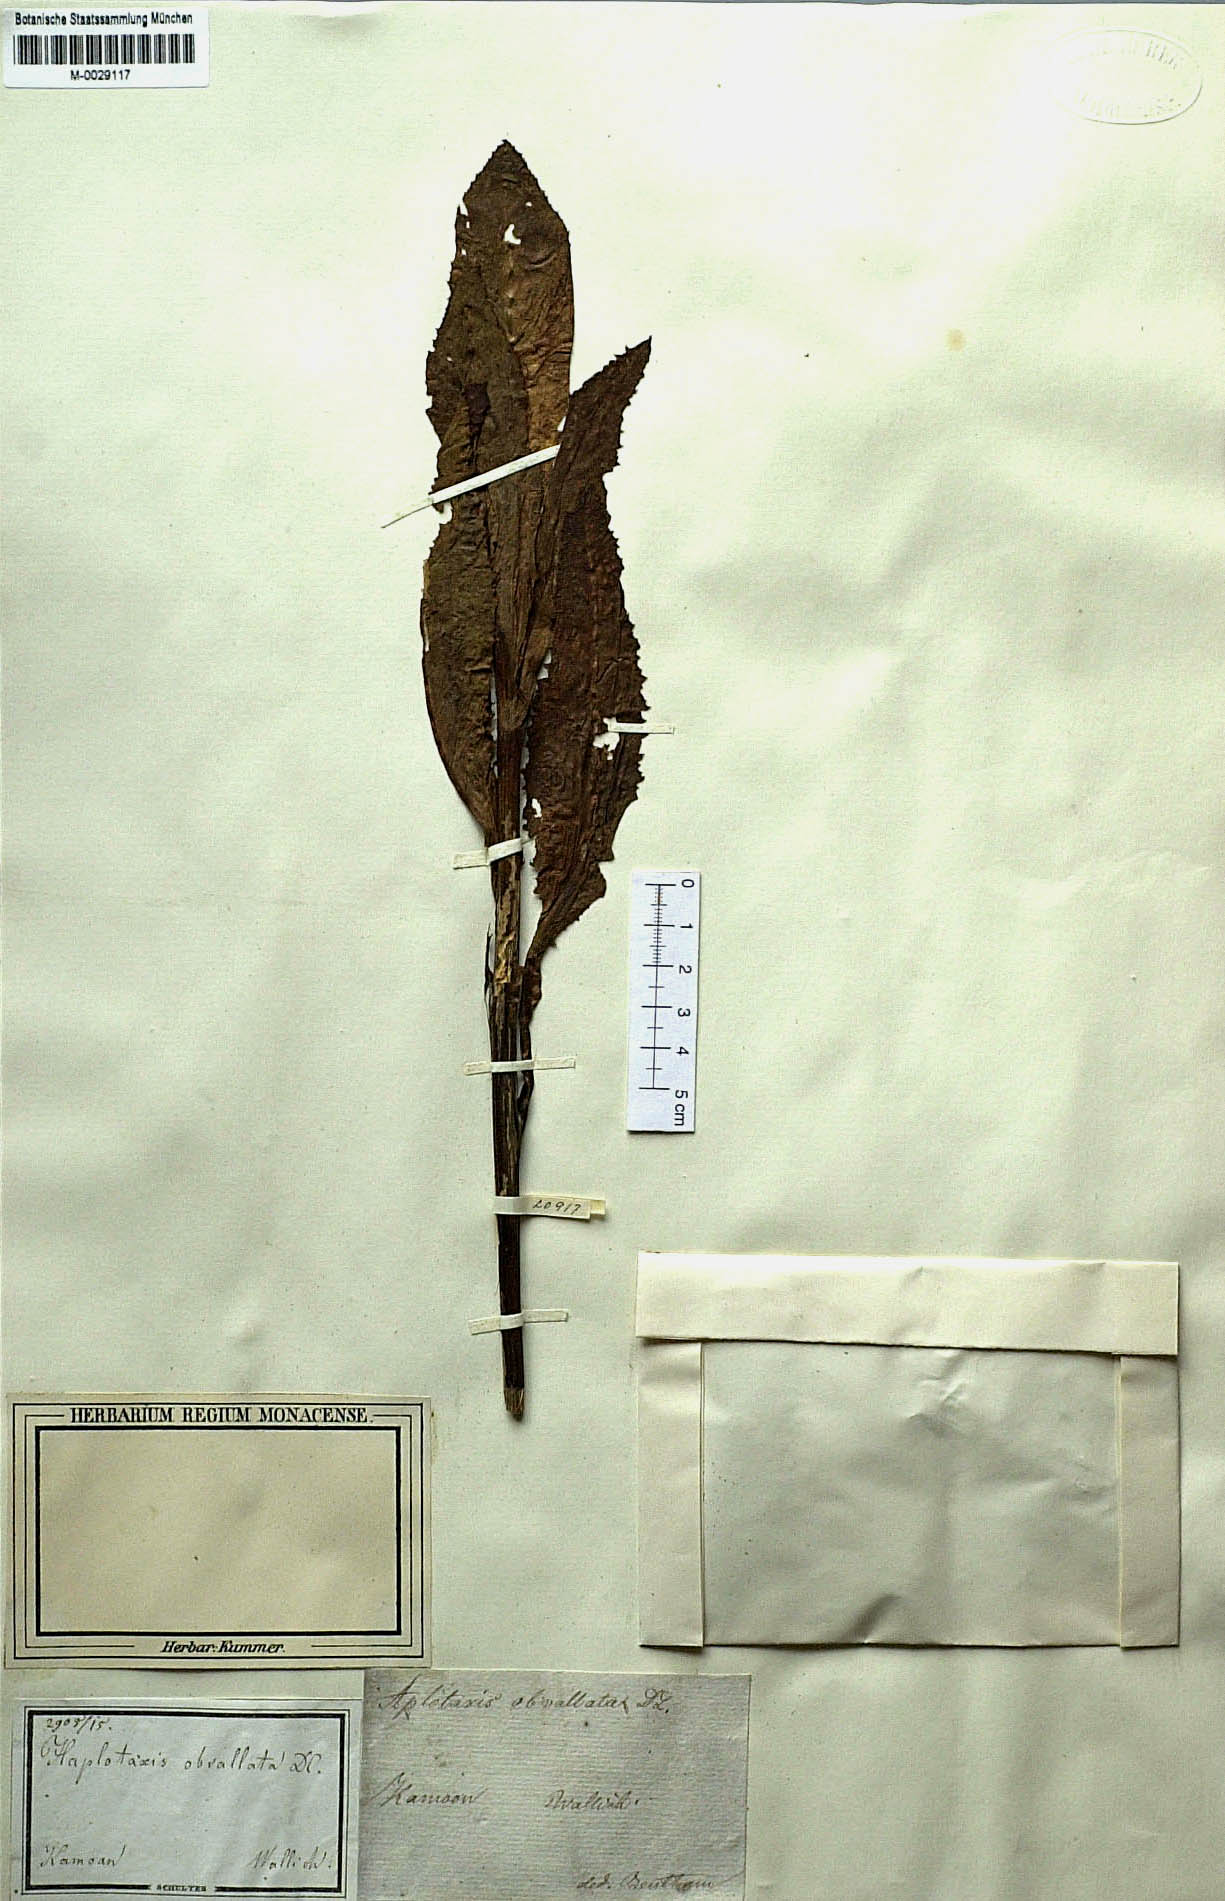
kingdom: Plantae
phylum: Tracheophyta
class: Magnoliopsida
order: Asterales
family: Asteraceae
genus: Saussurea
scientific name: Saussurea obvallata
